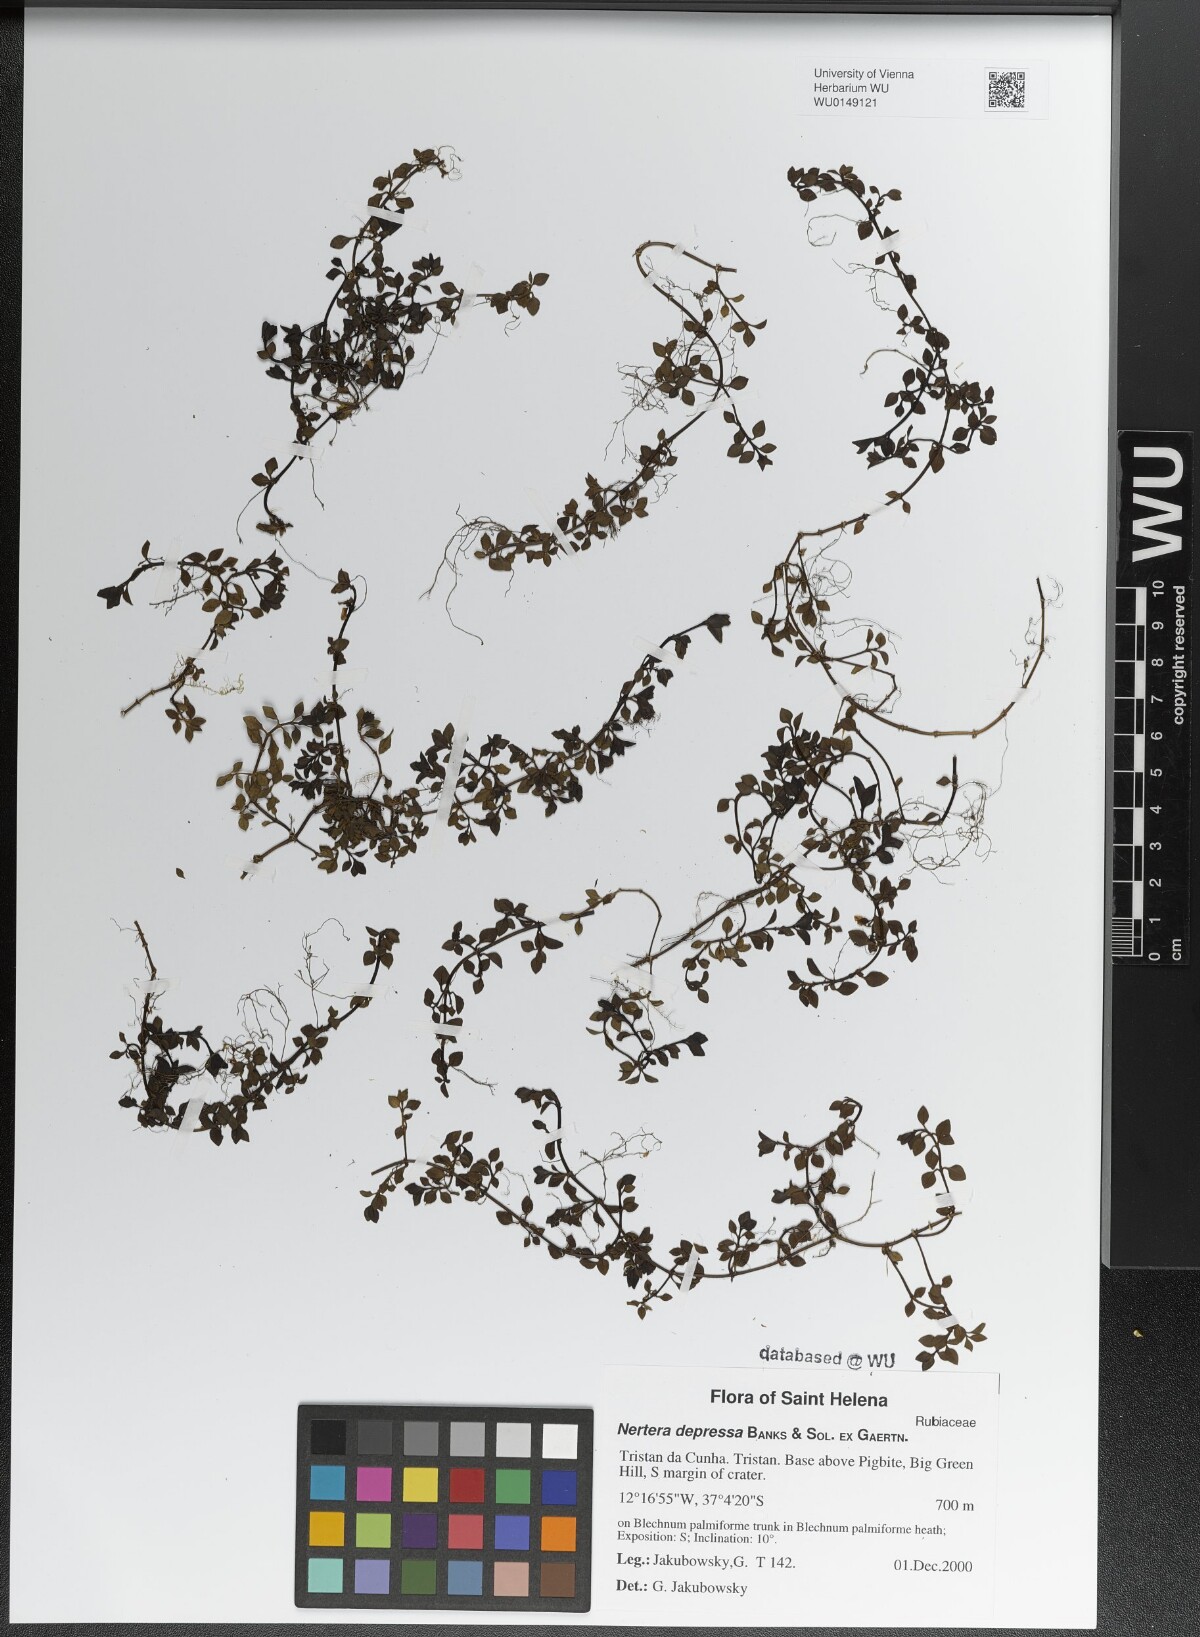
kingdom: Plantae
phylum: Tracheophyta
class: Magnoliopsida
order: Gentianales
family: Rubiaceae
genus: Nertera
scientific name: Nertera granadensis
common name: Beadplant
